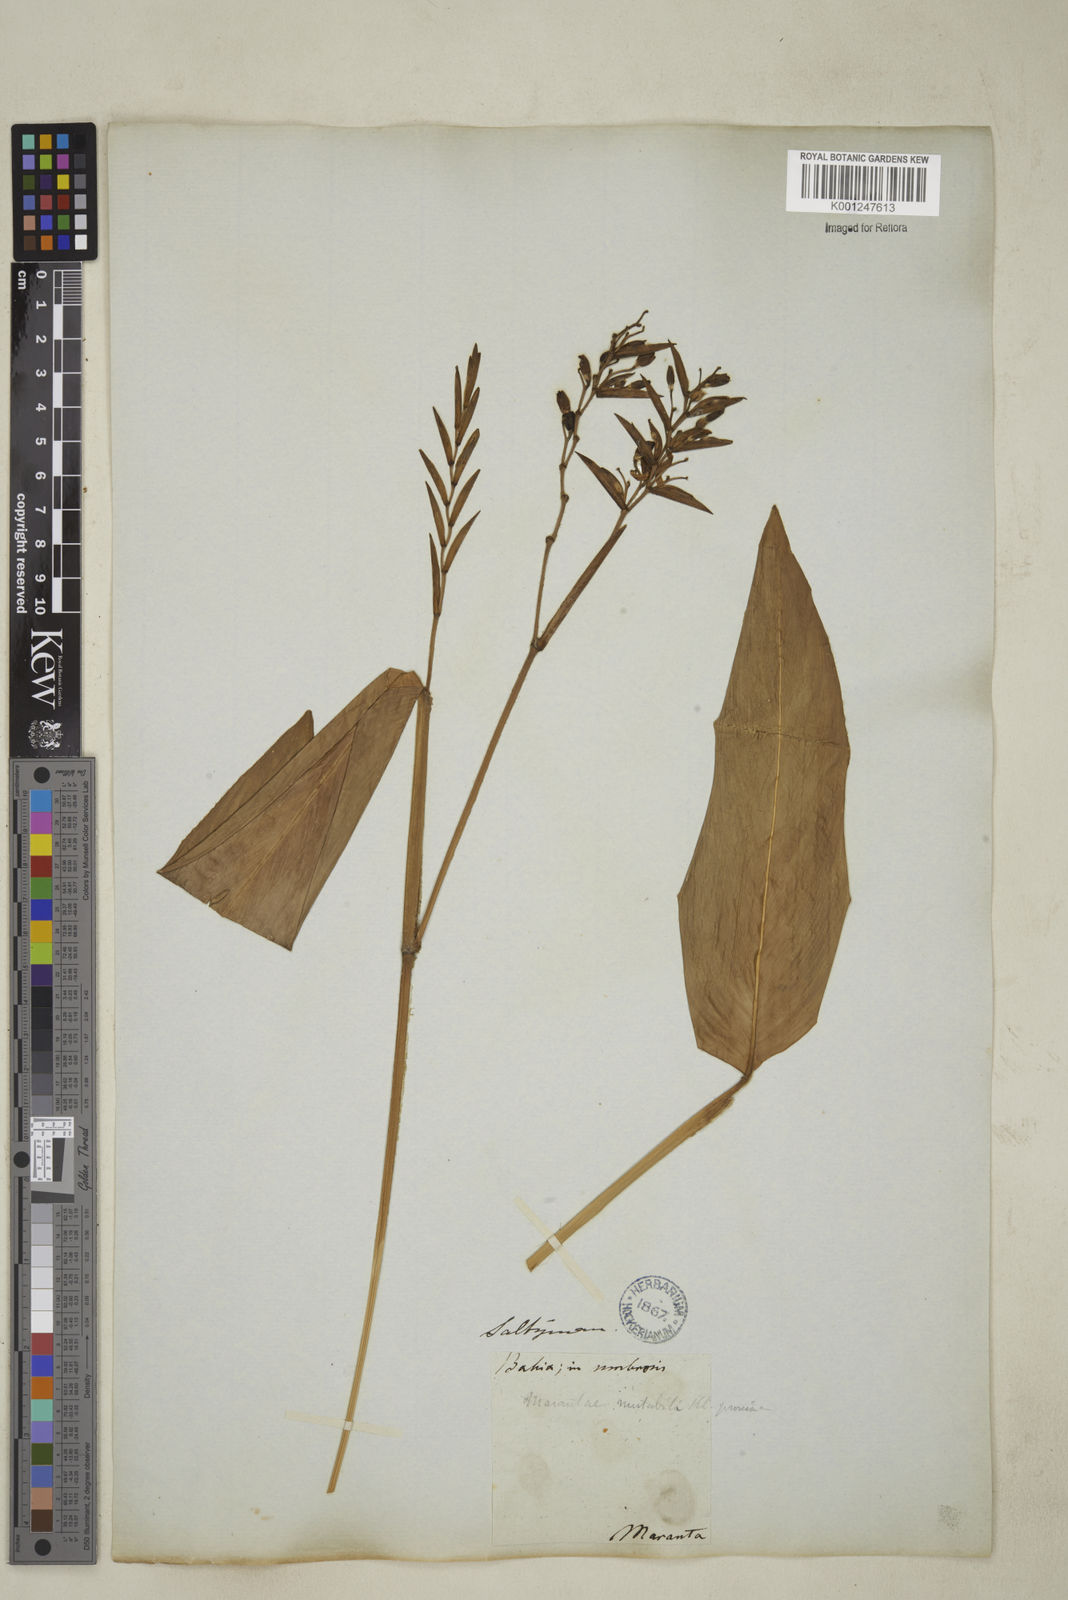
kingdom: Plantae
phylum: Tracheophyta
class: Liliopsida
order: Zingiberales
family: Marantaceae
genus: Stromanthe
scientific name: Stromanthe porteana
